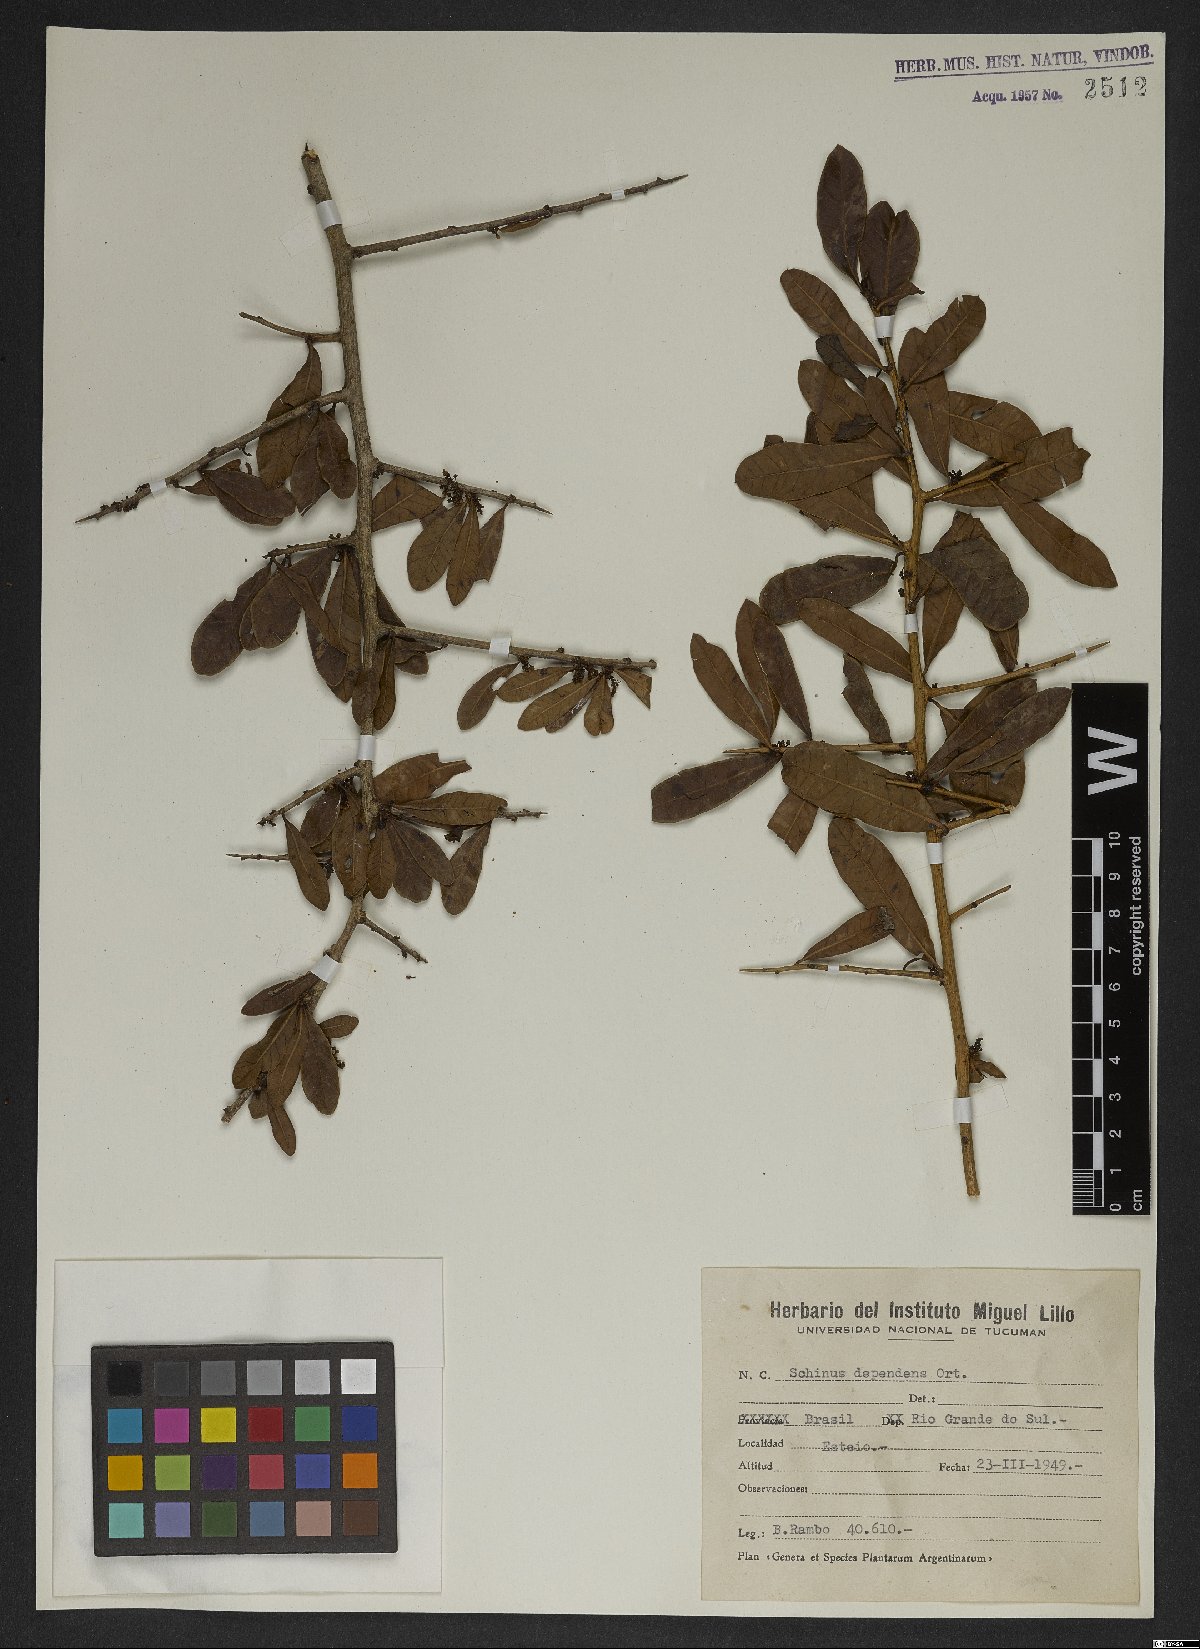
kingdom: Plantae
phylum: Tracheophyta
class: Magnoliopsida
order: Sapindales
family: Anacardiaceae
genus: Schinus
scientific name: Schinus polygama
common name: Hardee peppertree
